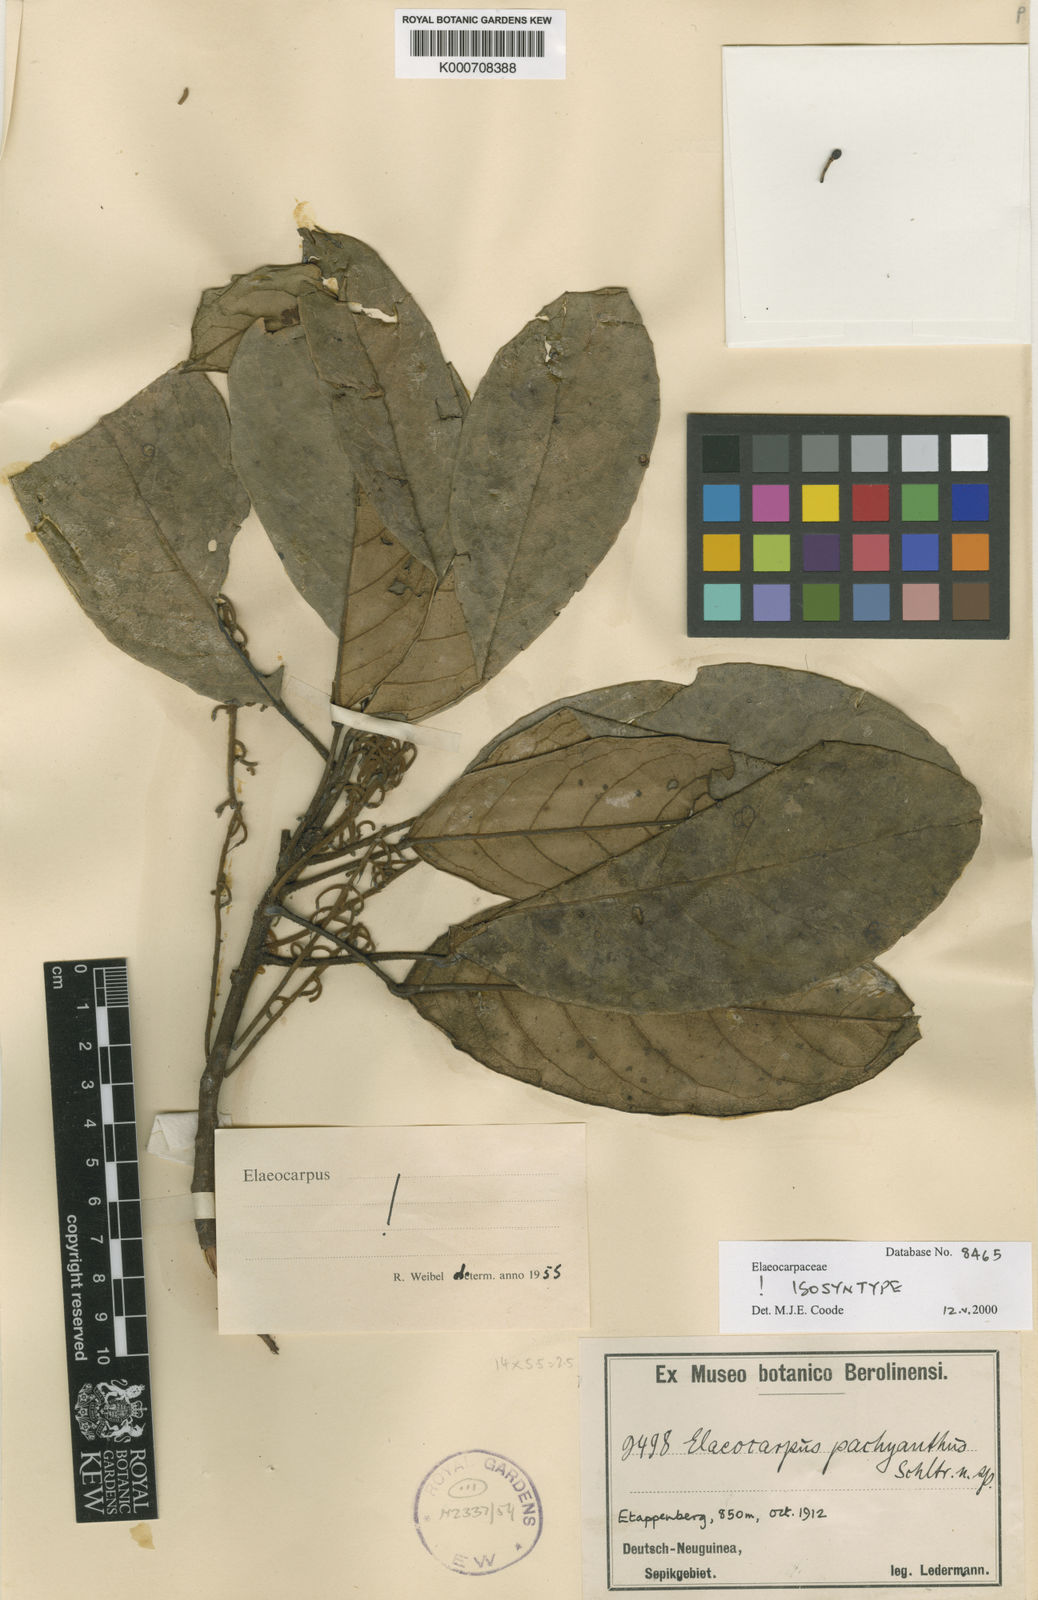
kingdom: Plantae
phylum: Tracheophyta
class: Magnoliopsida
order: Oxalidales
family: Elaeocarpaceae
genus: Elaeocarpus
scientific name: Elaeocarpus pachyanthus
